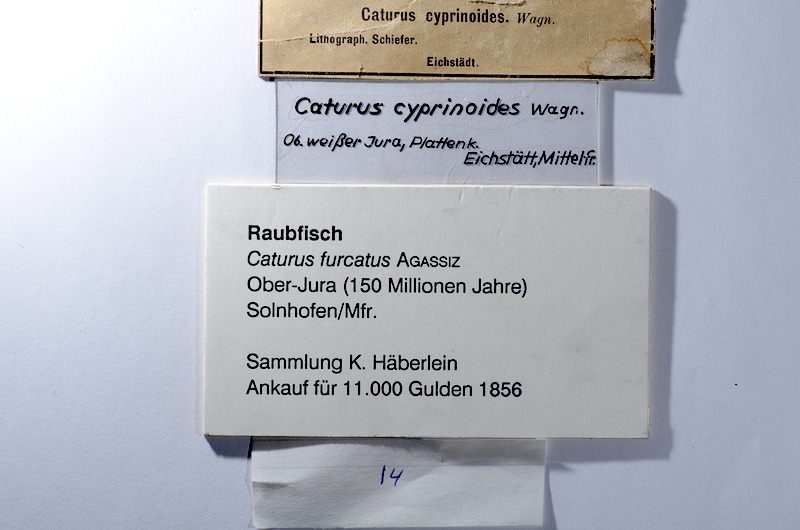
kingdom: Animalia
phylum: Chordata
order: Amiiformes
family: Caturidae
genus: Caturus
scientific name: Caturus furcatus
